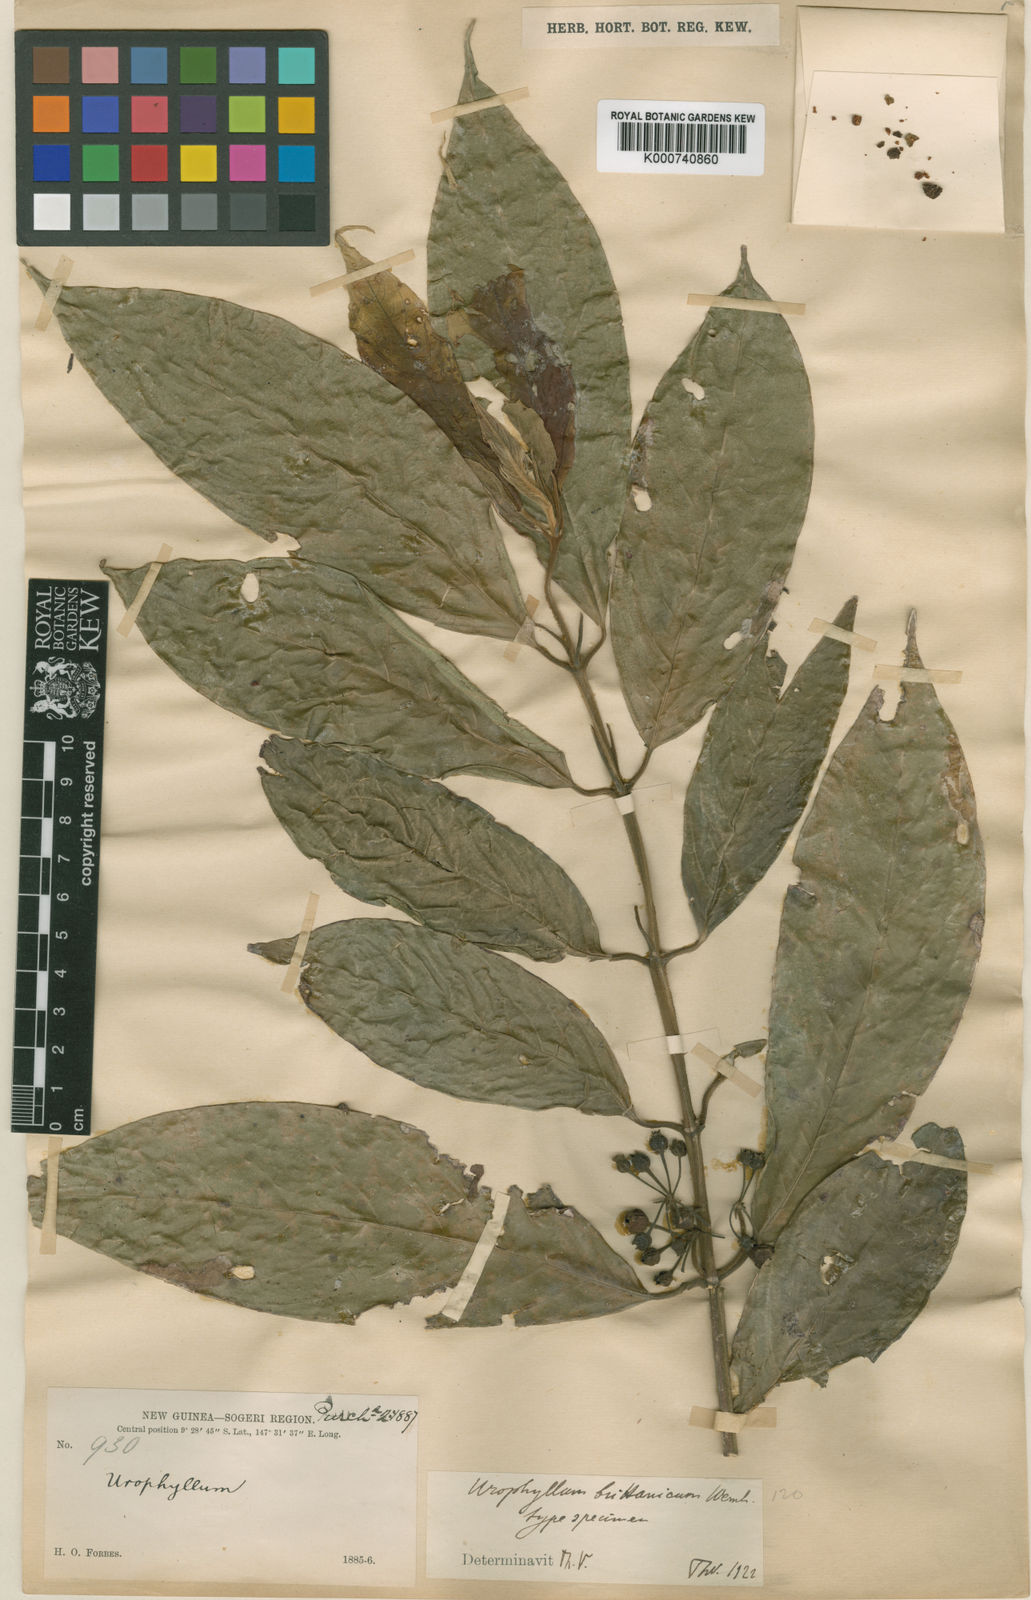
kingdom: Plantae
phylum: Tracheophyta
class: Magnoliopsida
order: Gentianales
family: Rubiaceae
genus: Urophyllum
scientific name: Urophyllum britannicum
